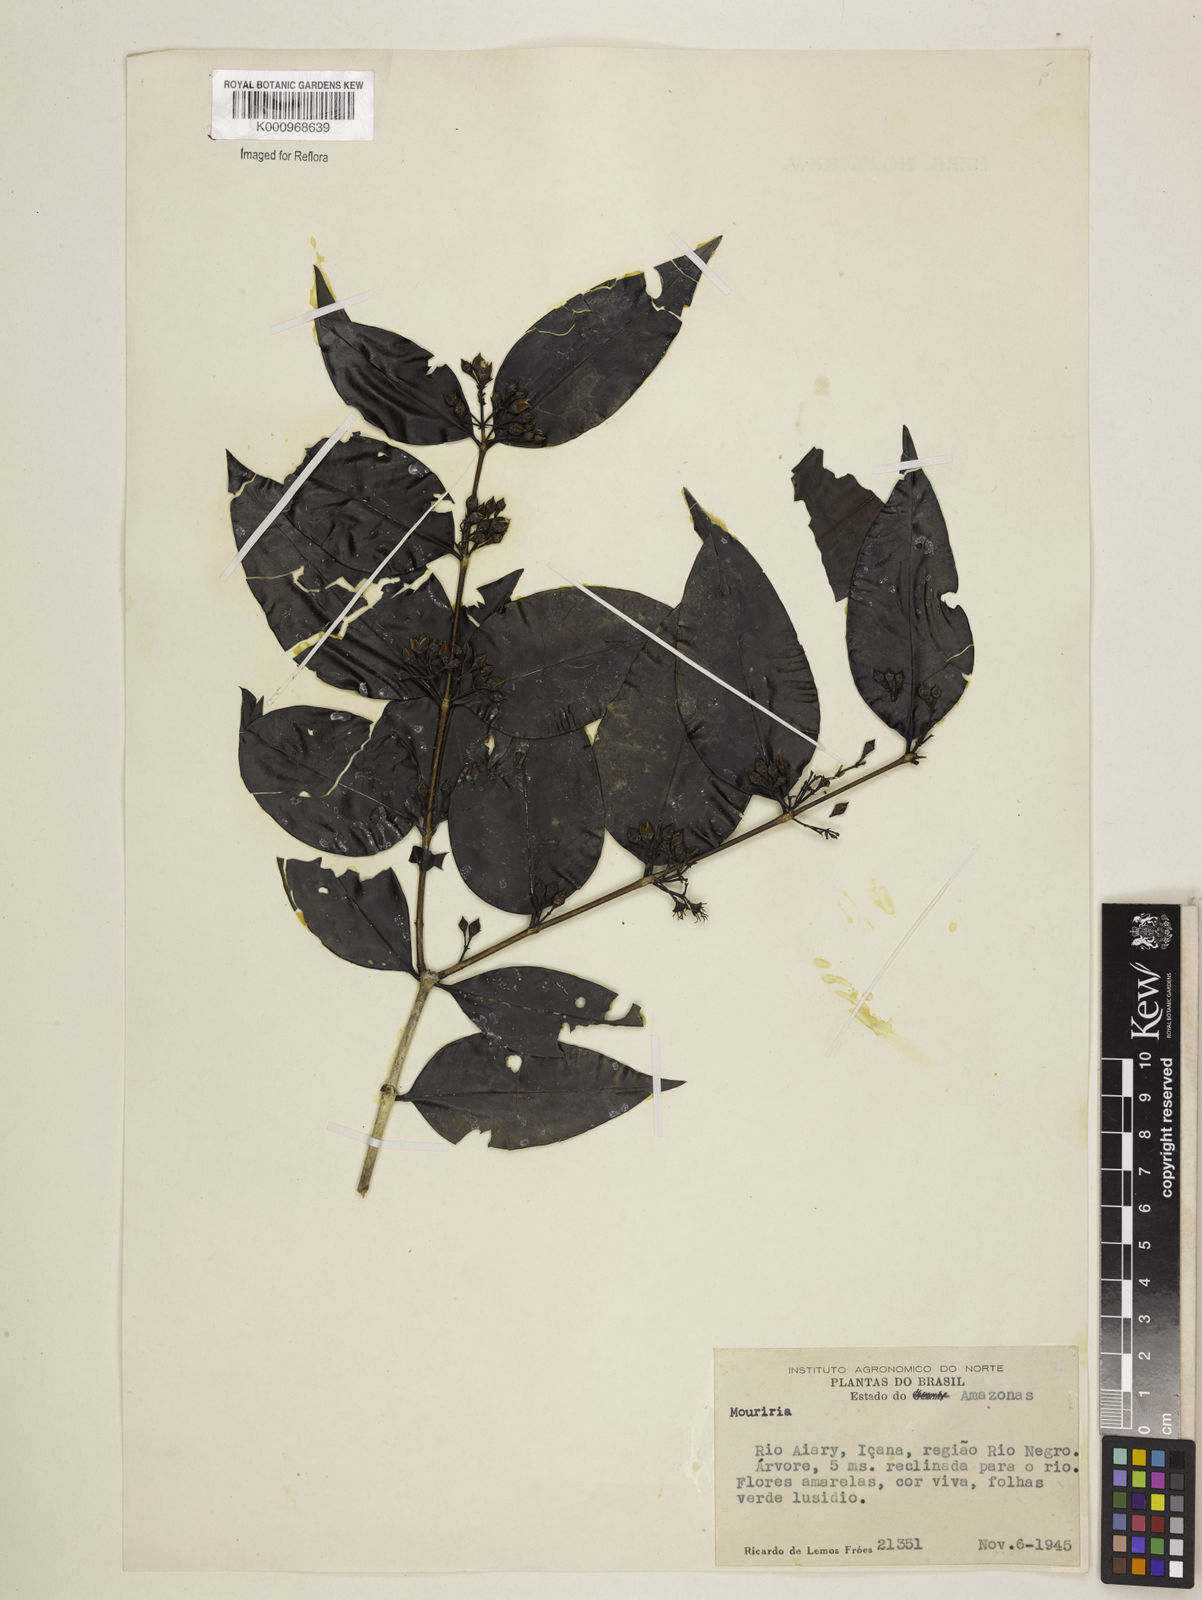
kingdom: Plantae
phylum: Tracheophyta
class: Magnoliopsida
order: Myrtales
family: Melastomataceae
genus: Mouriri
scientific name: Mouriri vernicosa
